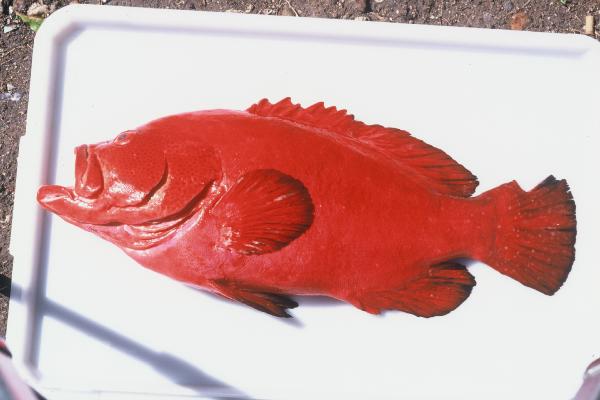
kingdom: Animalia
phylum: Chordata
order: Perciformes
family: Serranidae
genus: Cephalopholis
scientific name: Cephalopholis sonnerati
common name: Tomato hind
